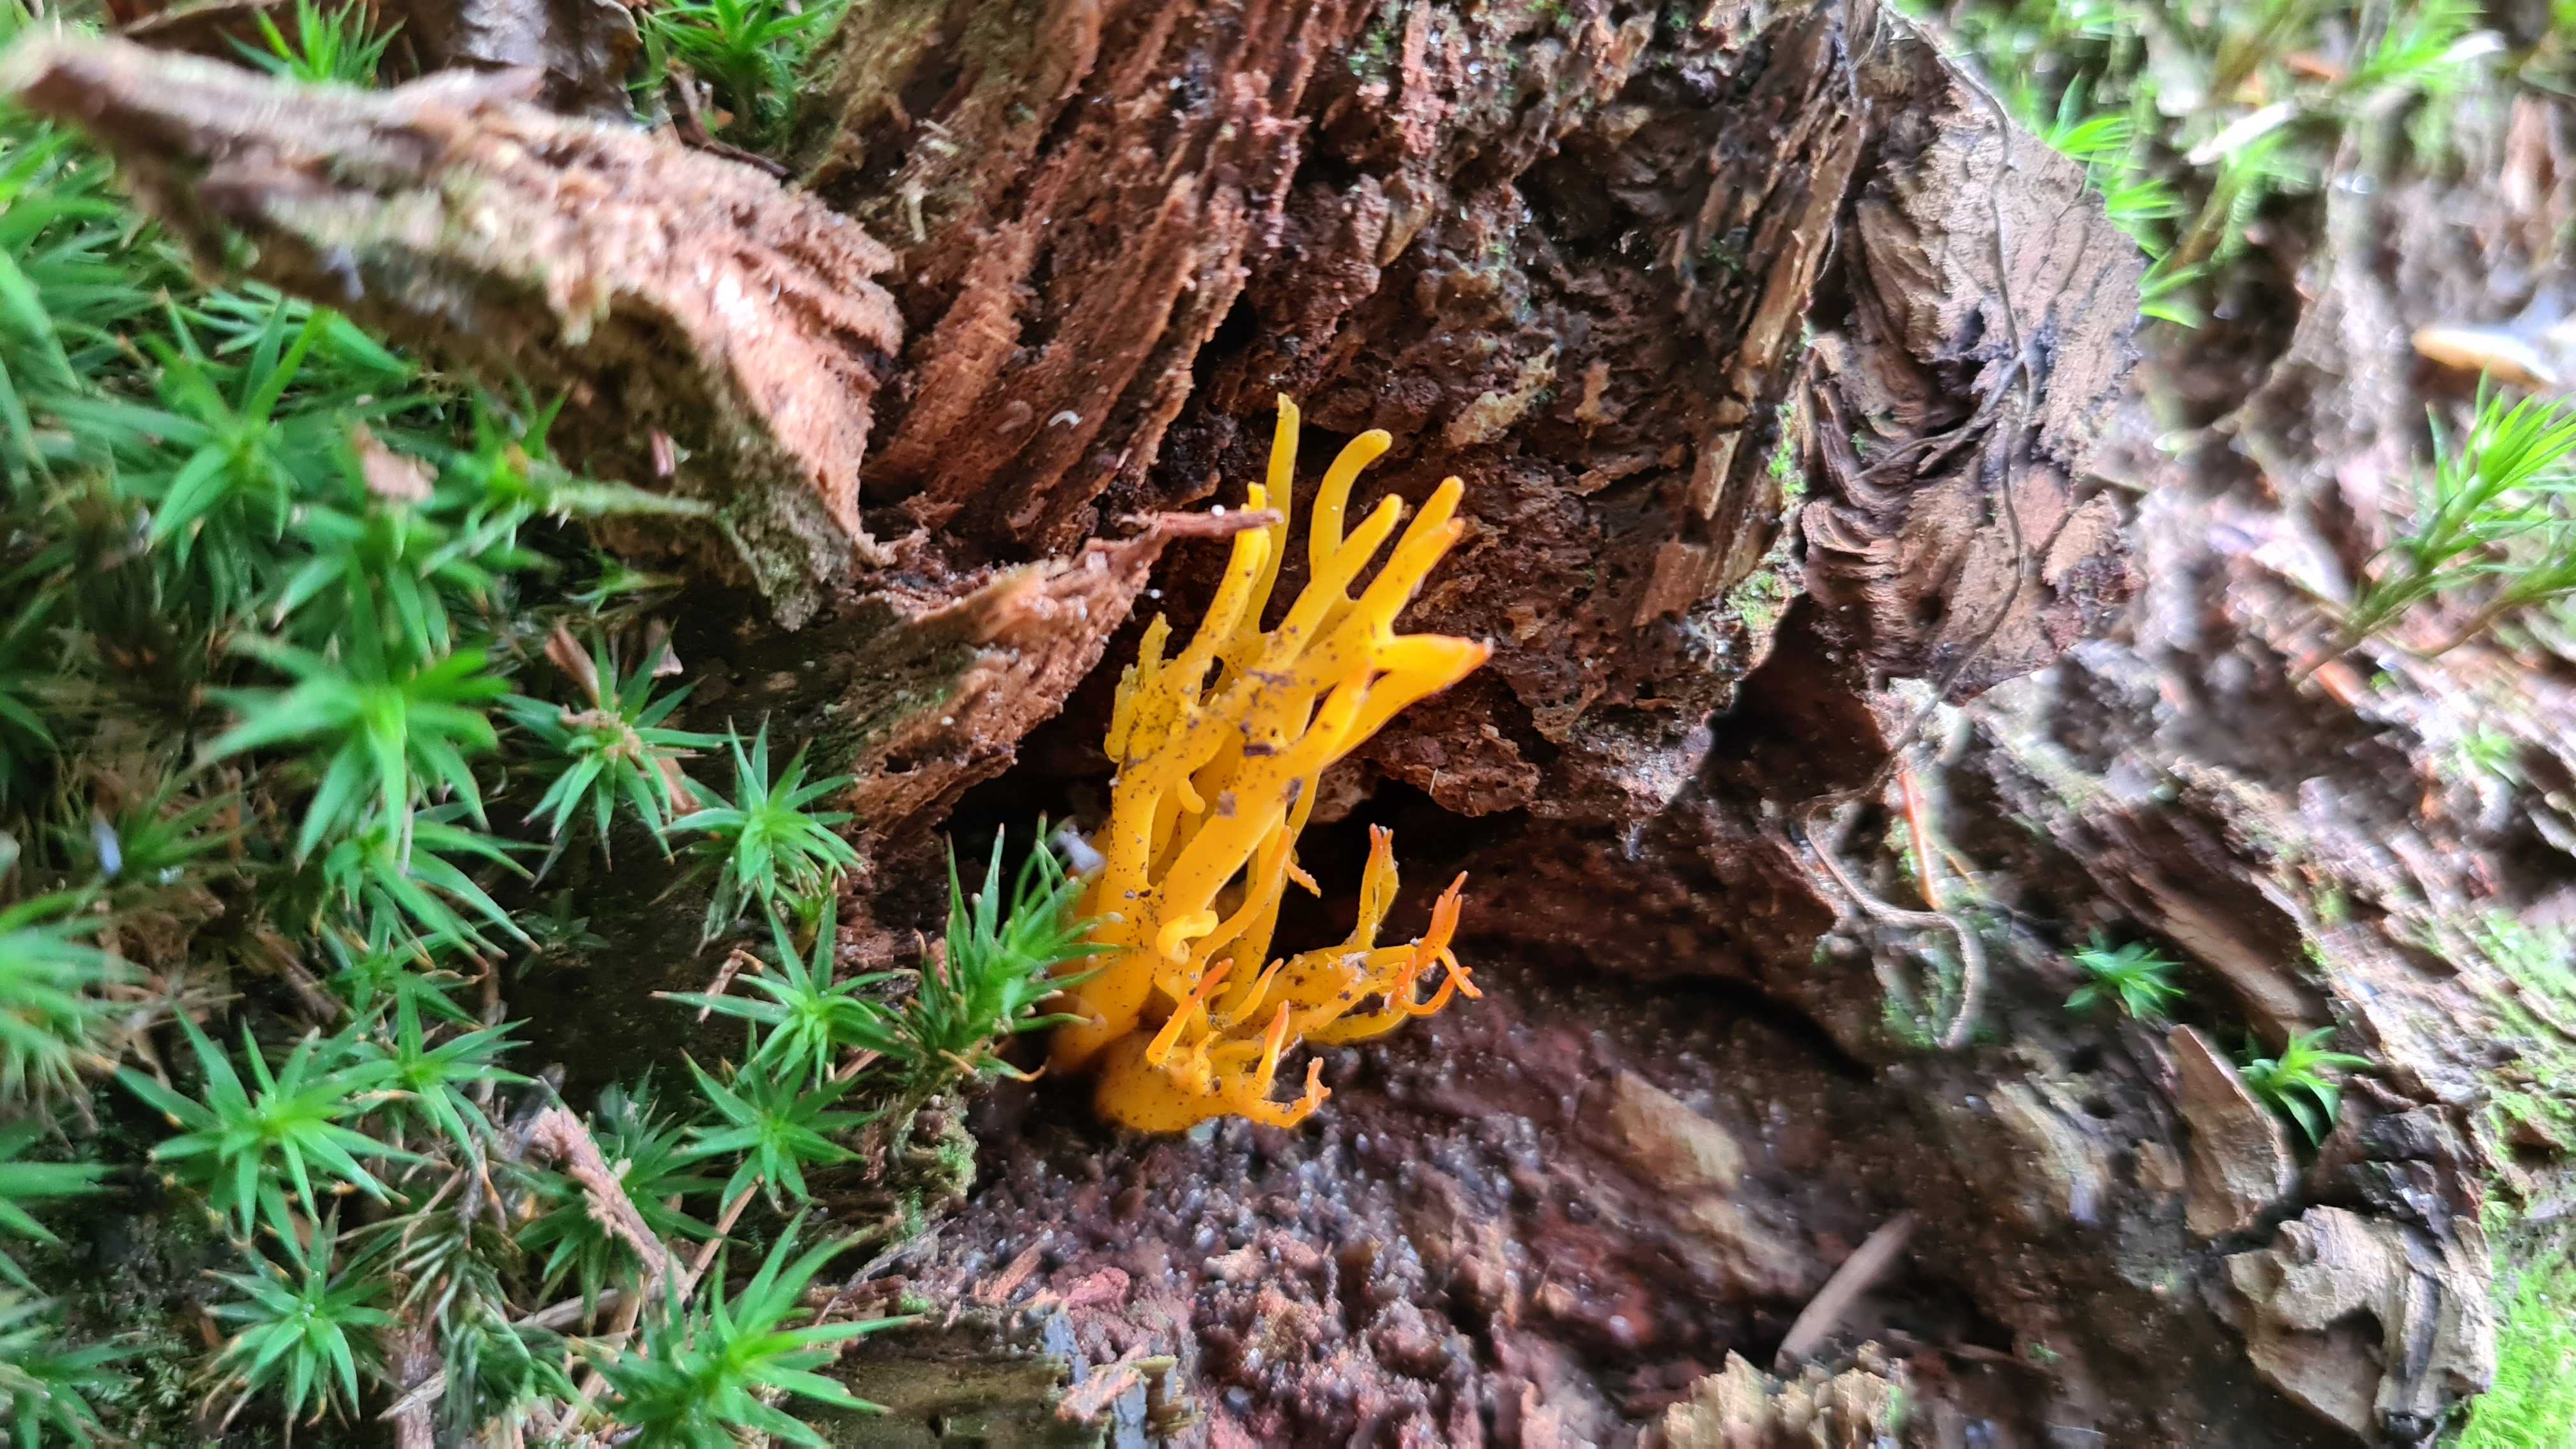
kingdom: Fungi
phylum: Basidiomycota
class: Dacrymycetes
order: Dacrymycetales
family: Dacrymycetaceae
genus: Calocera
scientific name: Calocera viscosa
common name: almindelig guldgaffel
